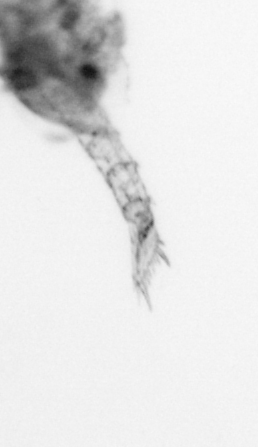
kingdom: Animalia
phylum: Arthropoda
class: Malacostraca
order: Decapoda
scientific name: Decapoda
